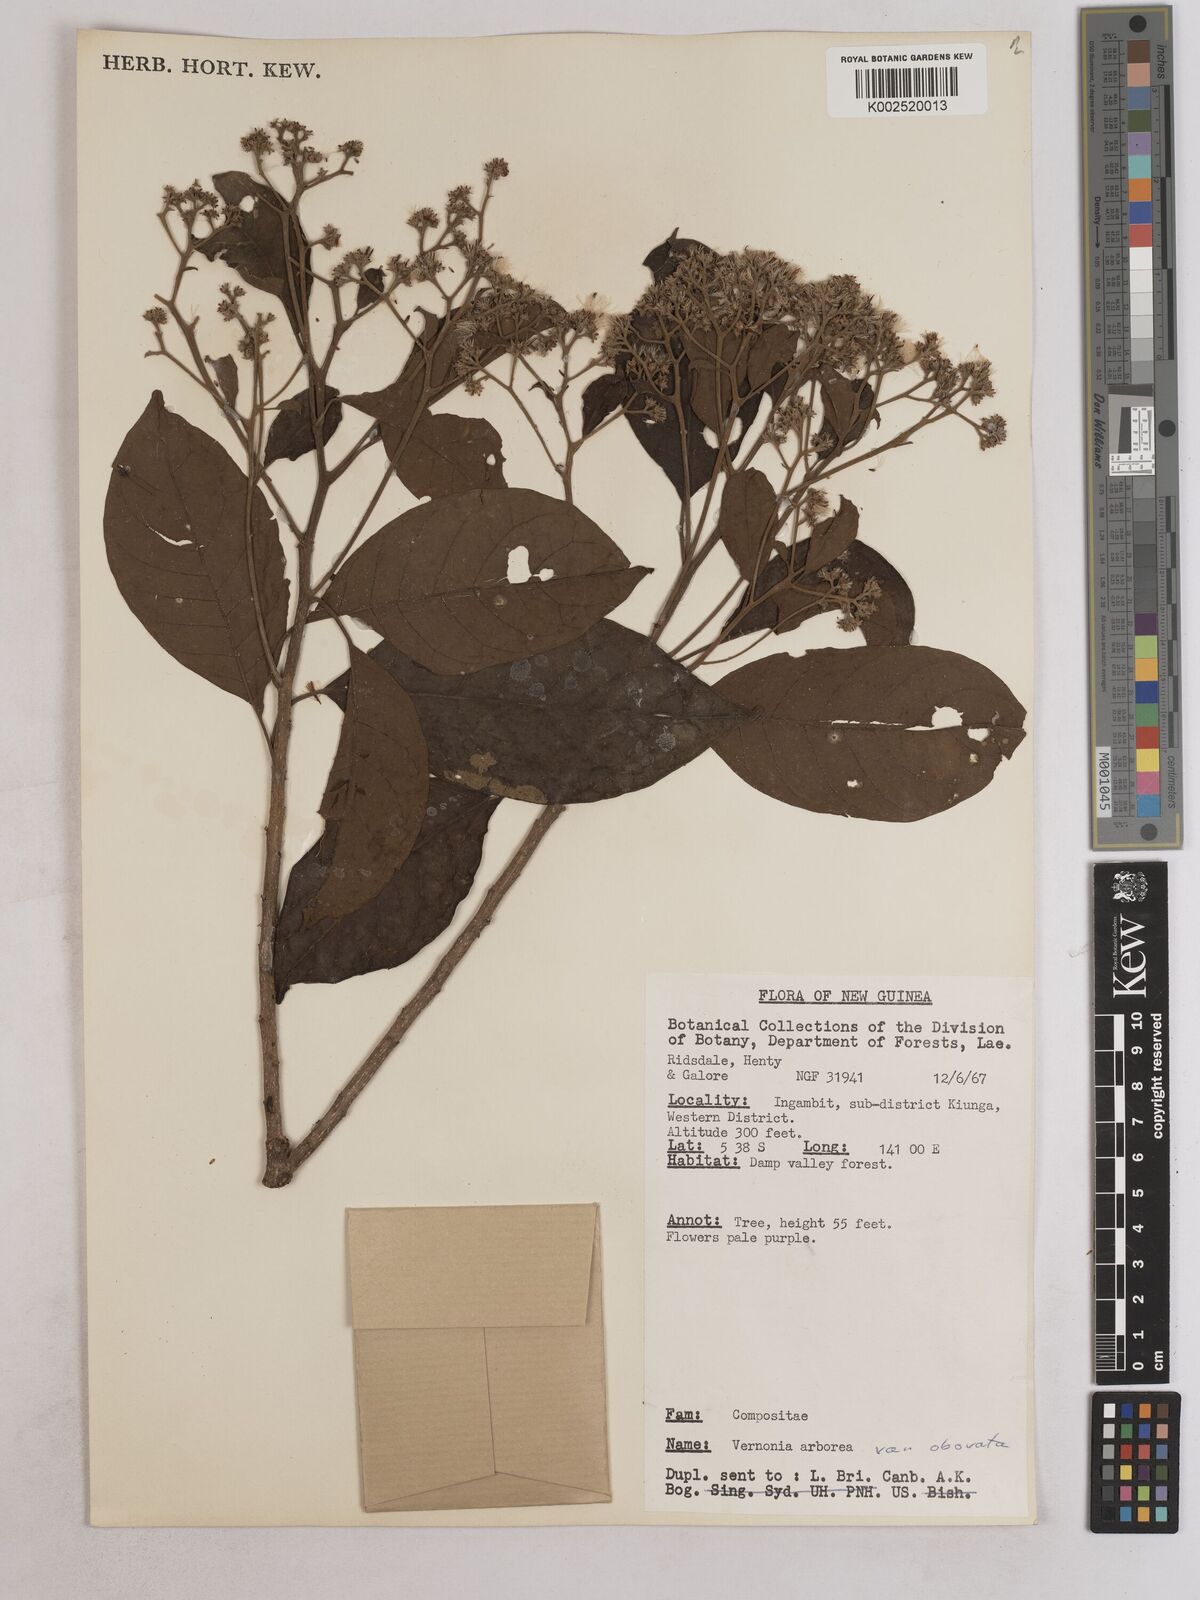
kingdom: Plantae
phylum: Tracheophyta
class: Magnoliopsida
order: Asterales
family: Asteraceae
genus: Strobocalyx
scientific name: Strobocalyx arborea
